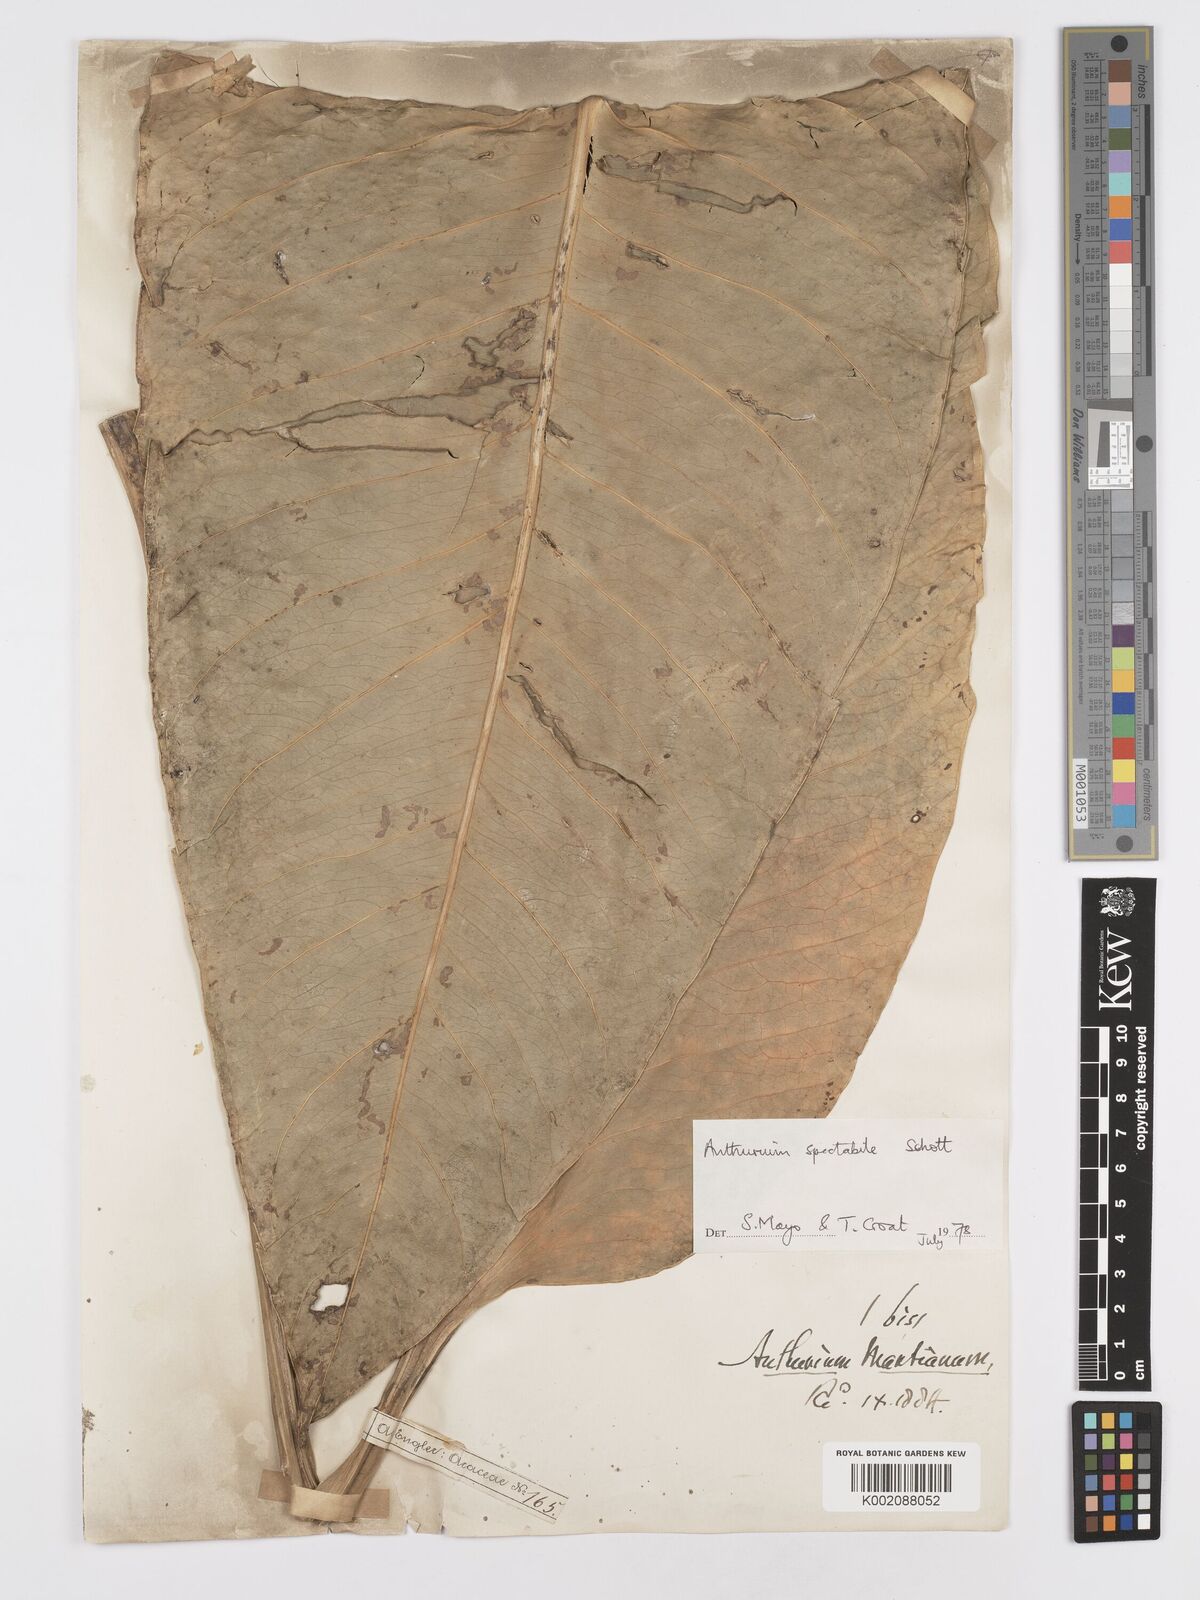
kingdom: Plantae
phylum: Tracheophyta
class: Liliopsida
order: Alismatales
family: Araceae
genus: Anthurium
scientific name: Anthurium spectabile
